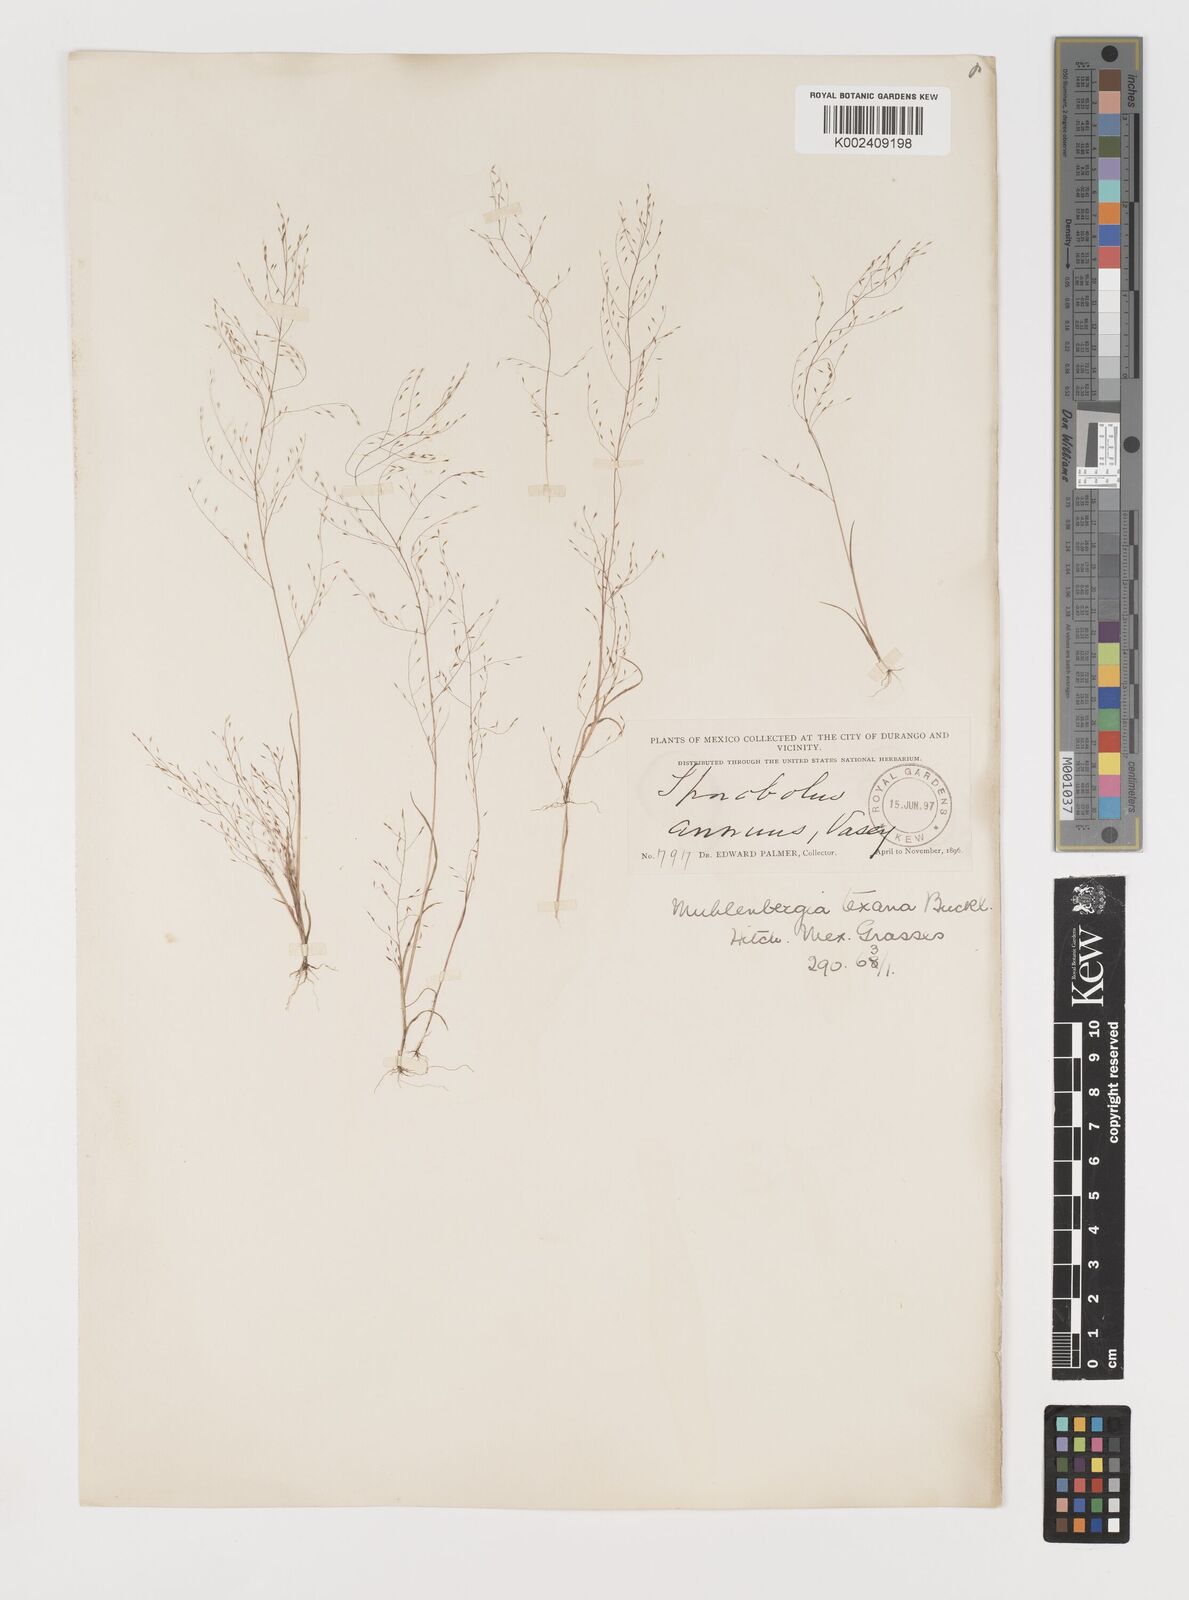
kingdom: Plantae
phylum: Tracheophyta
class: Liliopsida
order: Poales
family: Poaceae
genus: Muhlenbergia
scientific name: Muhlenbergia texana
